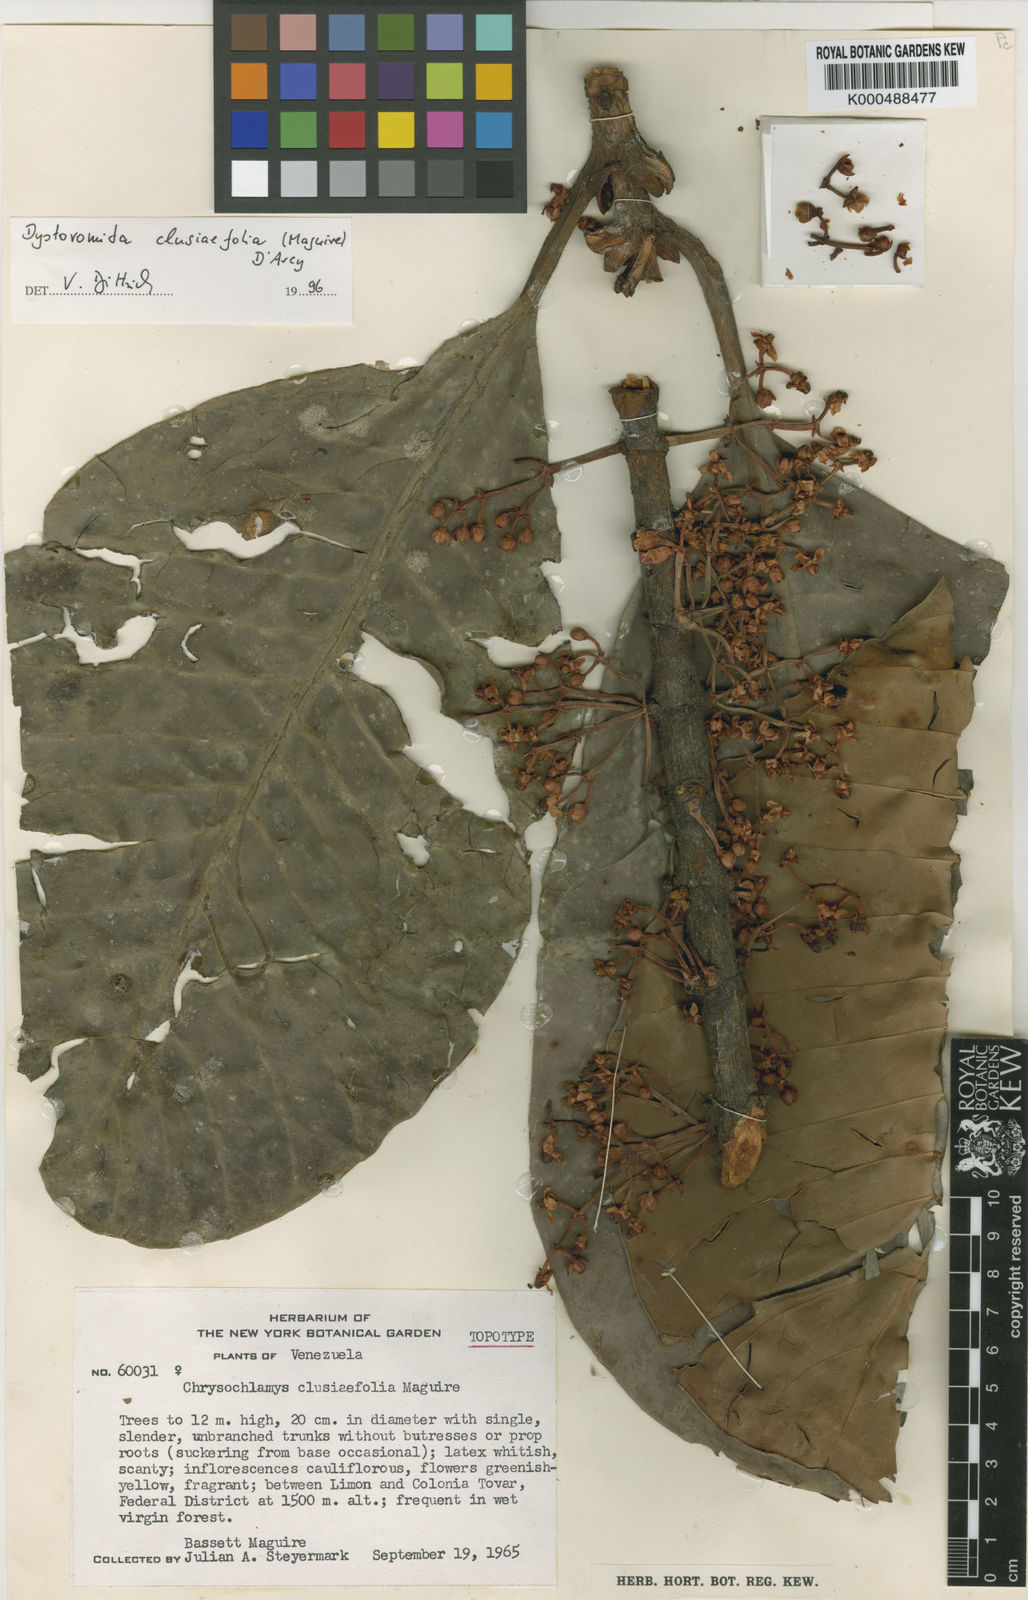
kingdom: Plantae
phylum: Tracheophyta
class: Magnoliopsida
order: Malpighiales
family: Clusiaceae
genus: Dystovomita
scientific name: Dystovomita clusiifolia
